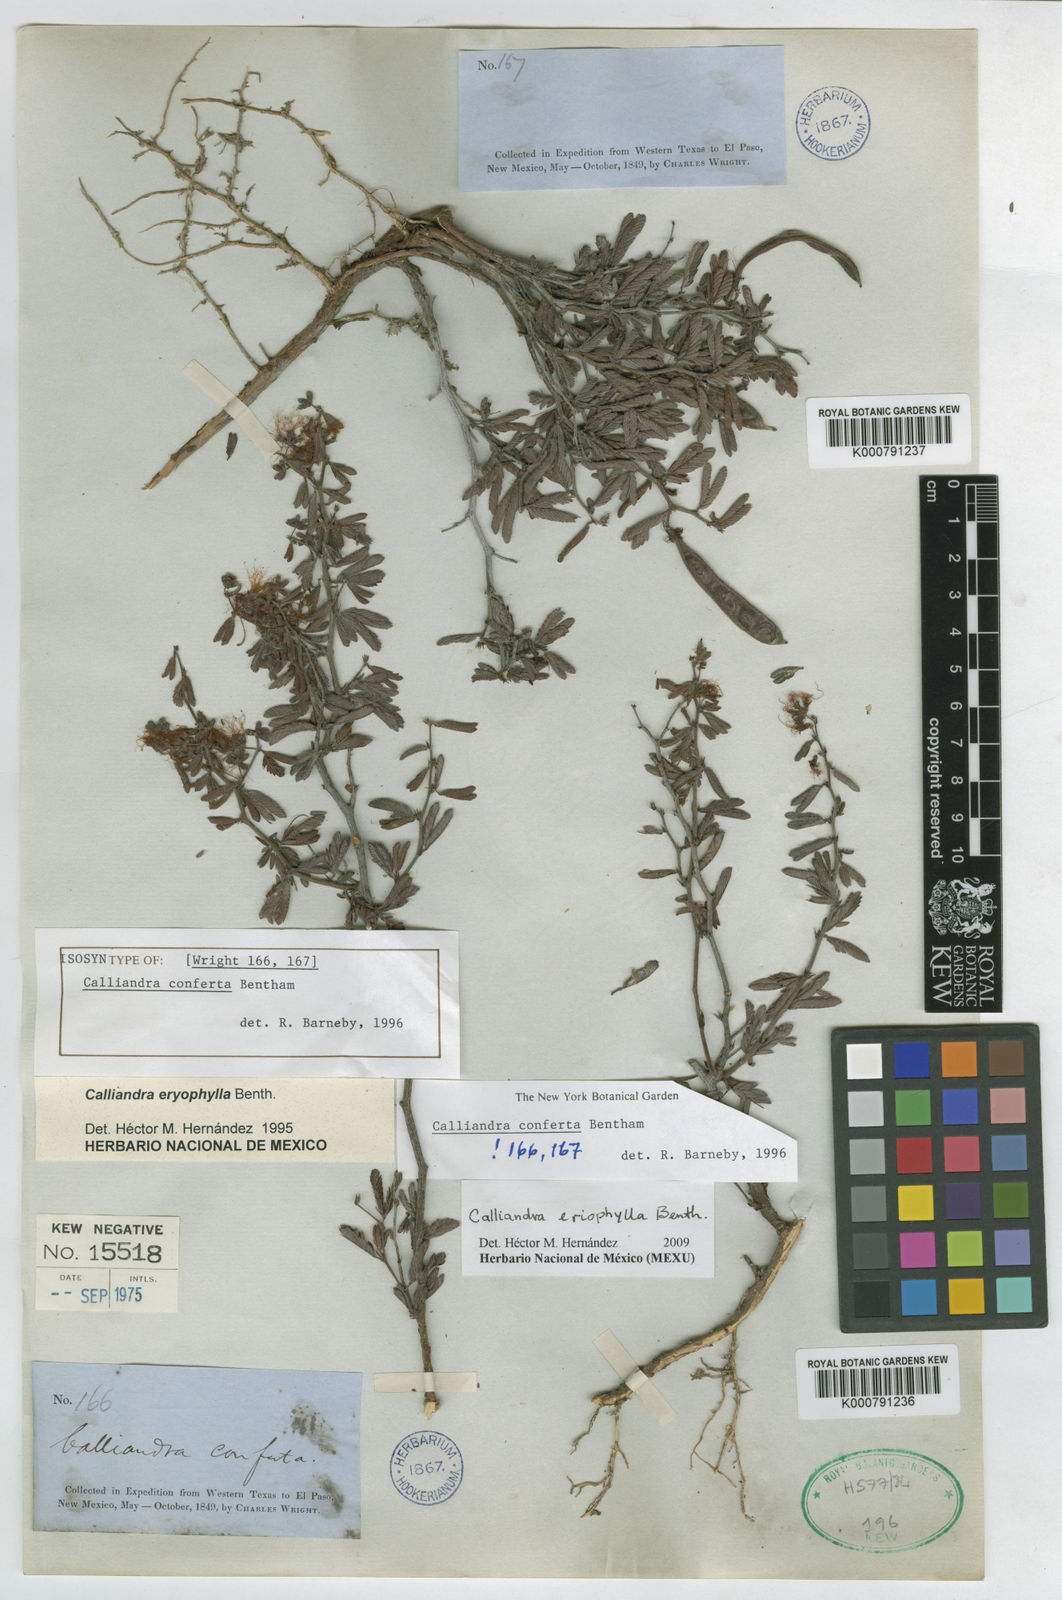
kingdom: Plantae
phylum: Tracheophyta
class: Magnoliopsida
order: Fabales
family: Fabaceae
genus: Calliandra
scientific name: Calliandra eriophylla
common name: Fairy-duster
